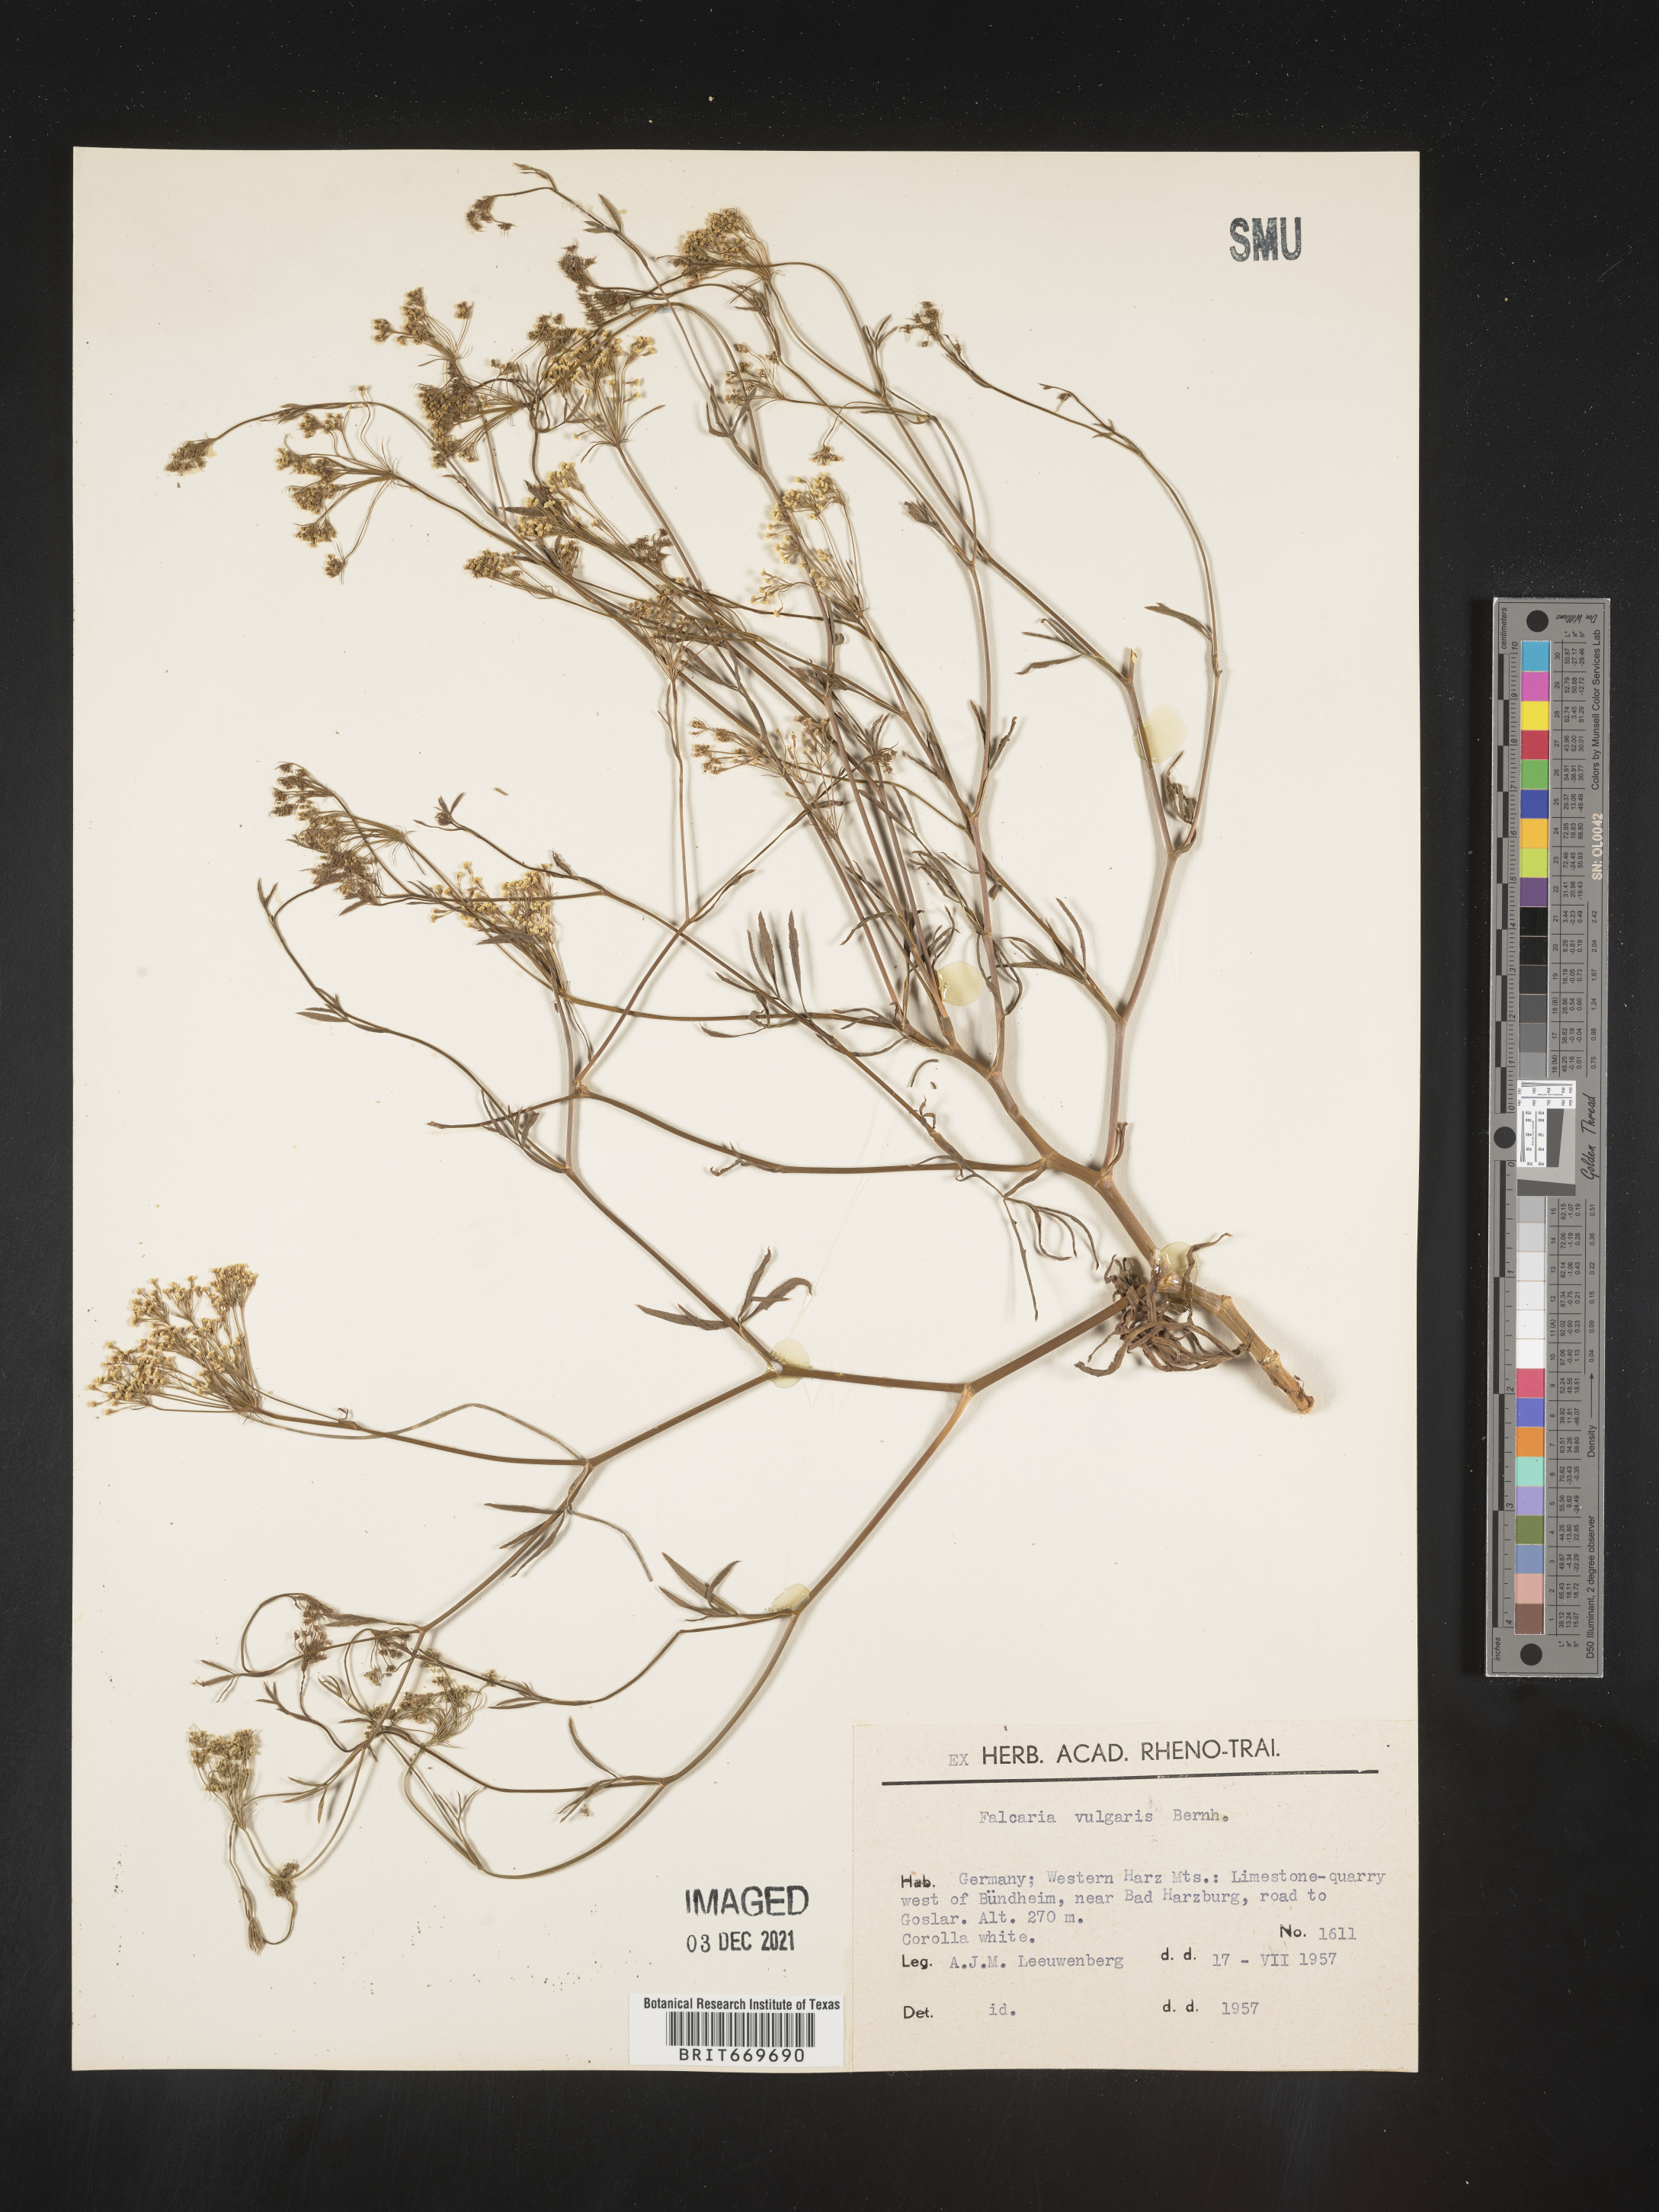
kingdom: Plantae
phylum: Tracheophyta
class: Magnoliopsida
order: Apiales
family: Apiaceae
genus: Falcaria
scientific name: Falcaria
